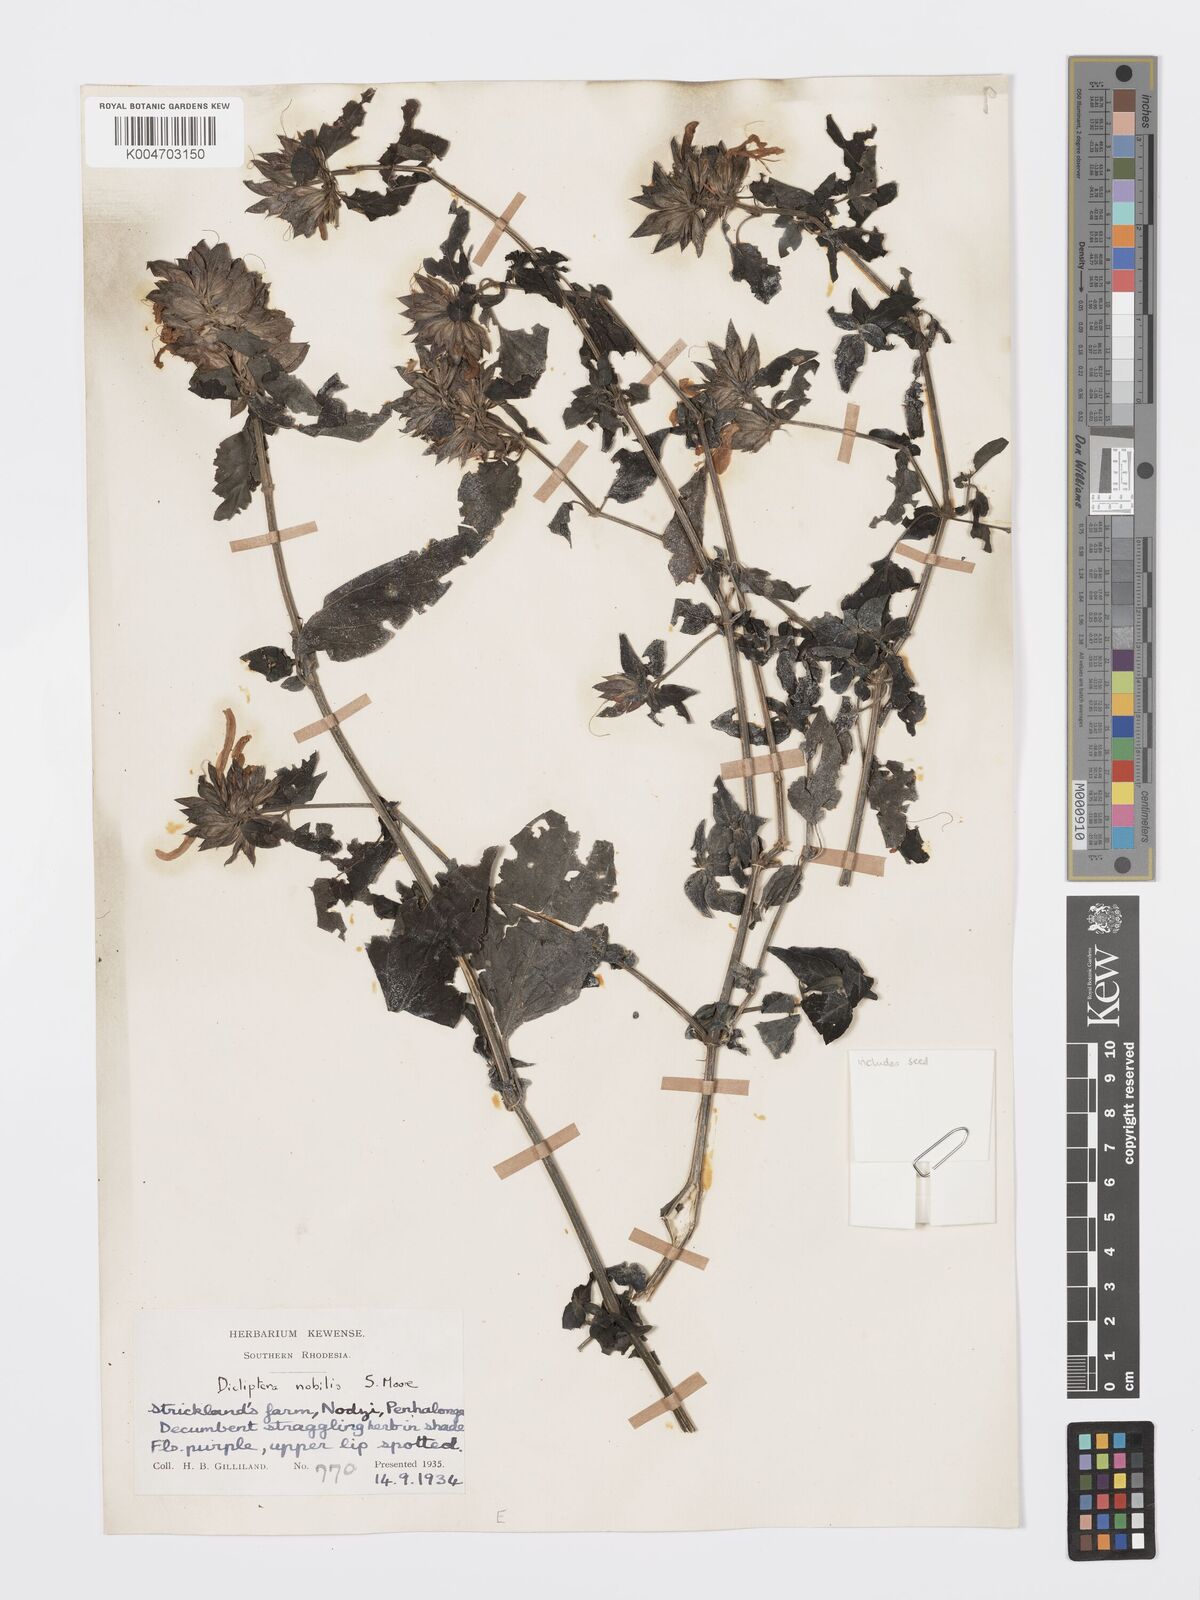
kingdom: Plantae
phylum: Tracheophyta
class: Magnoliopsida
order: Lamiales
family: Acanthaceae
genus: Dicliptera
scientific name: Dicliptera clinopodia
